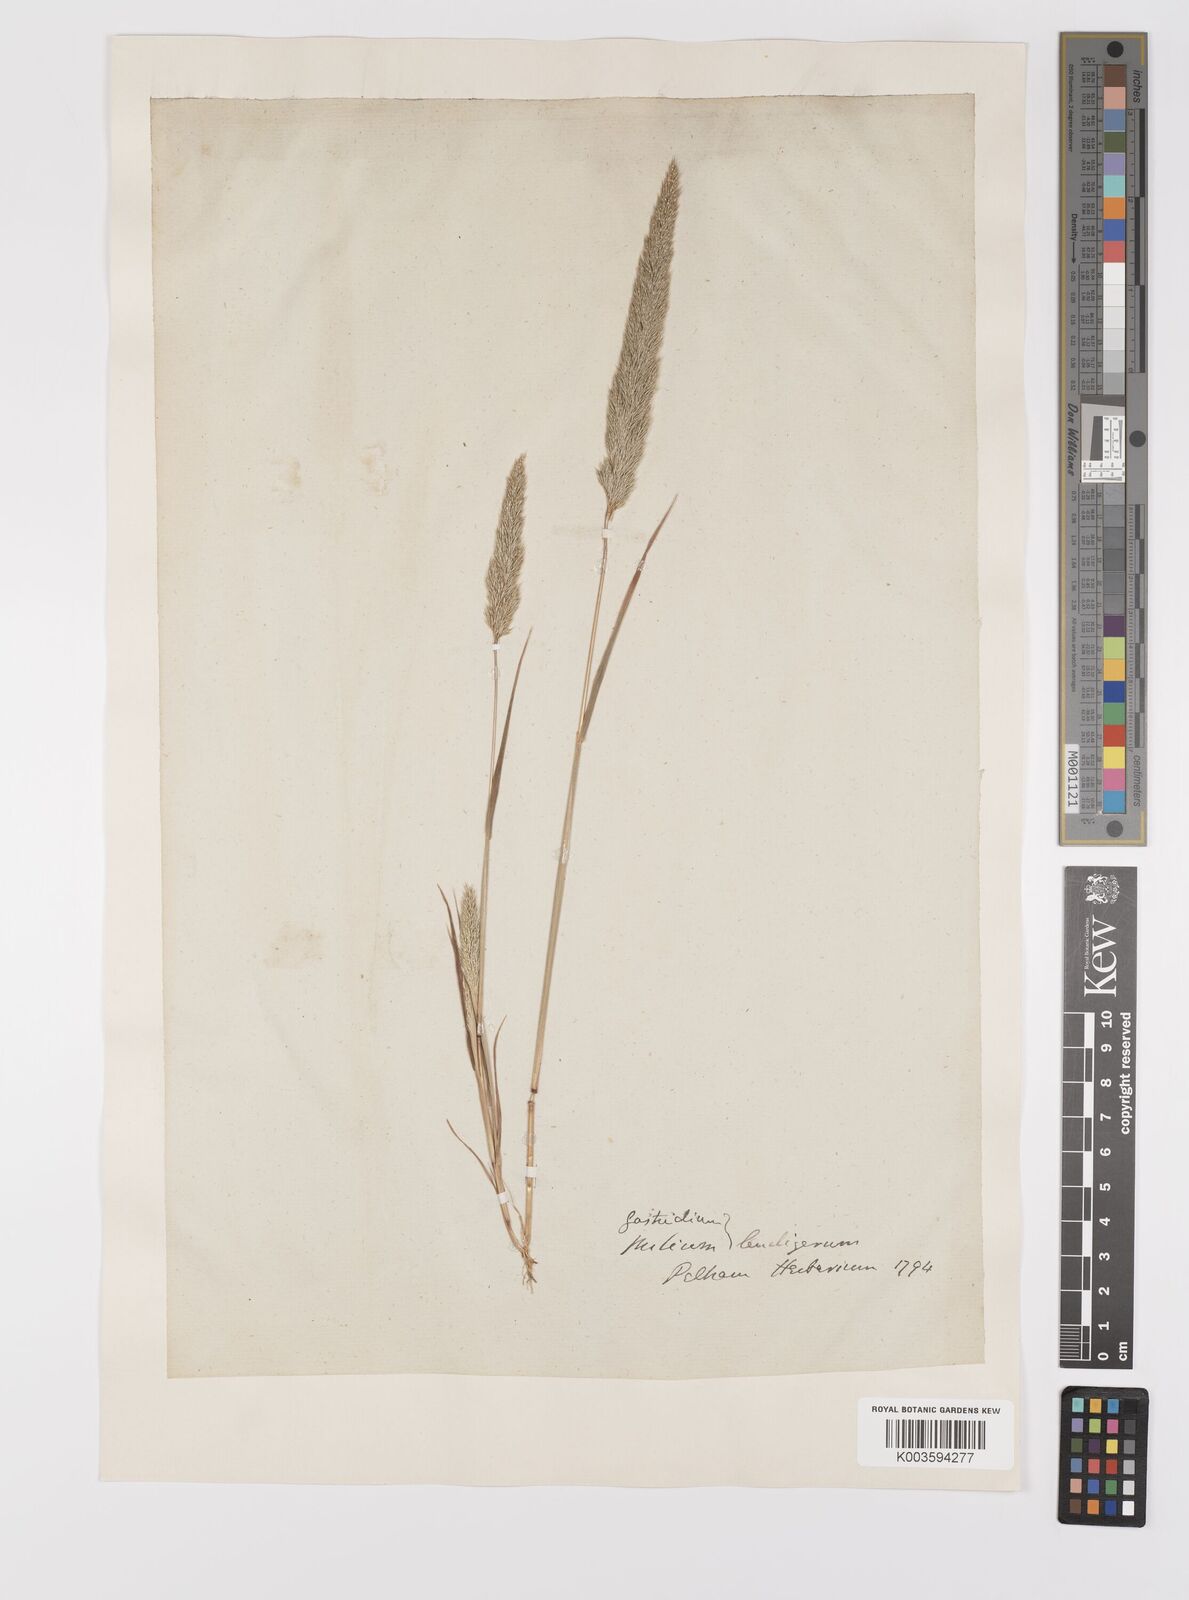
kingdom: Plantae
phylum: Tracheophyta
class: Liliopsida
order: Poales
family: Poaceae
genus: Gastridium
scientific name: Gastridium ventricosum
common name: Nit-grass
